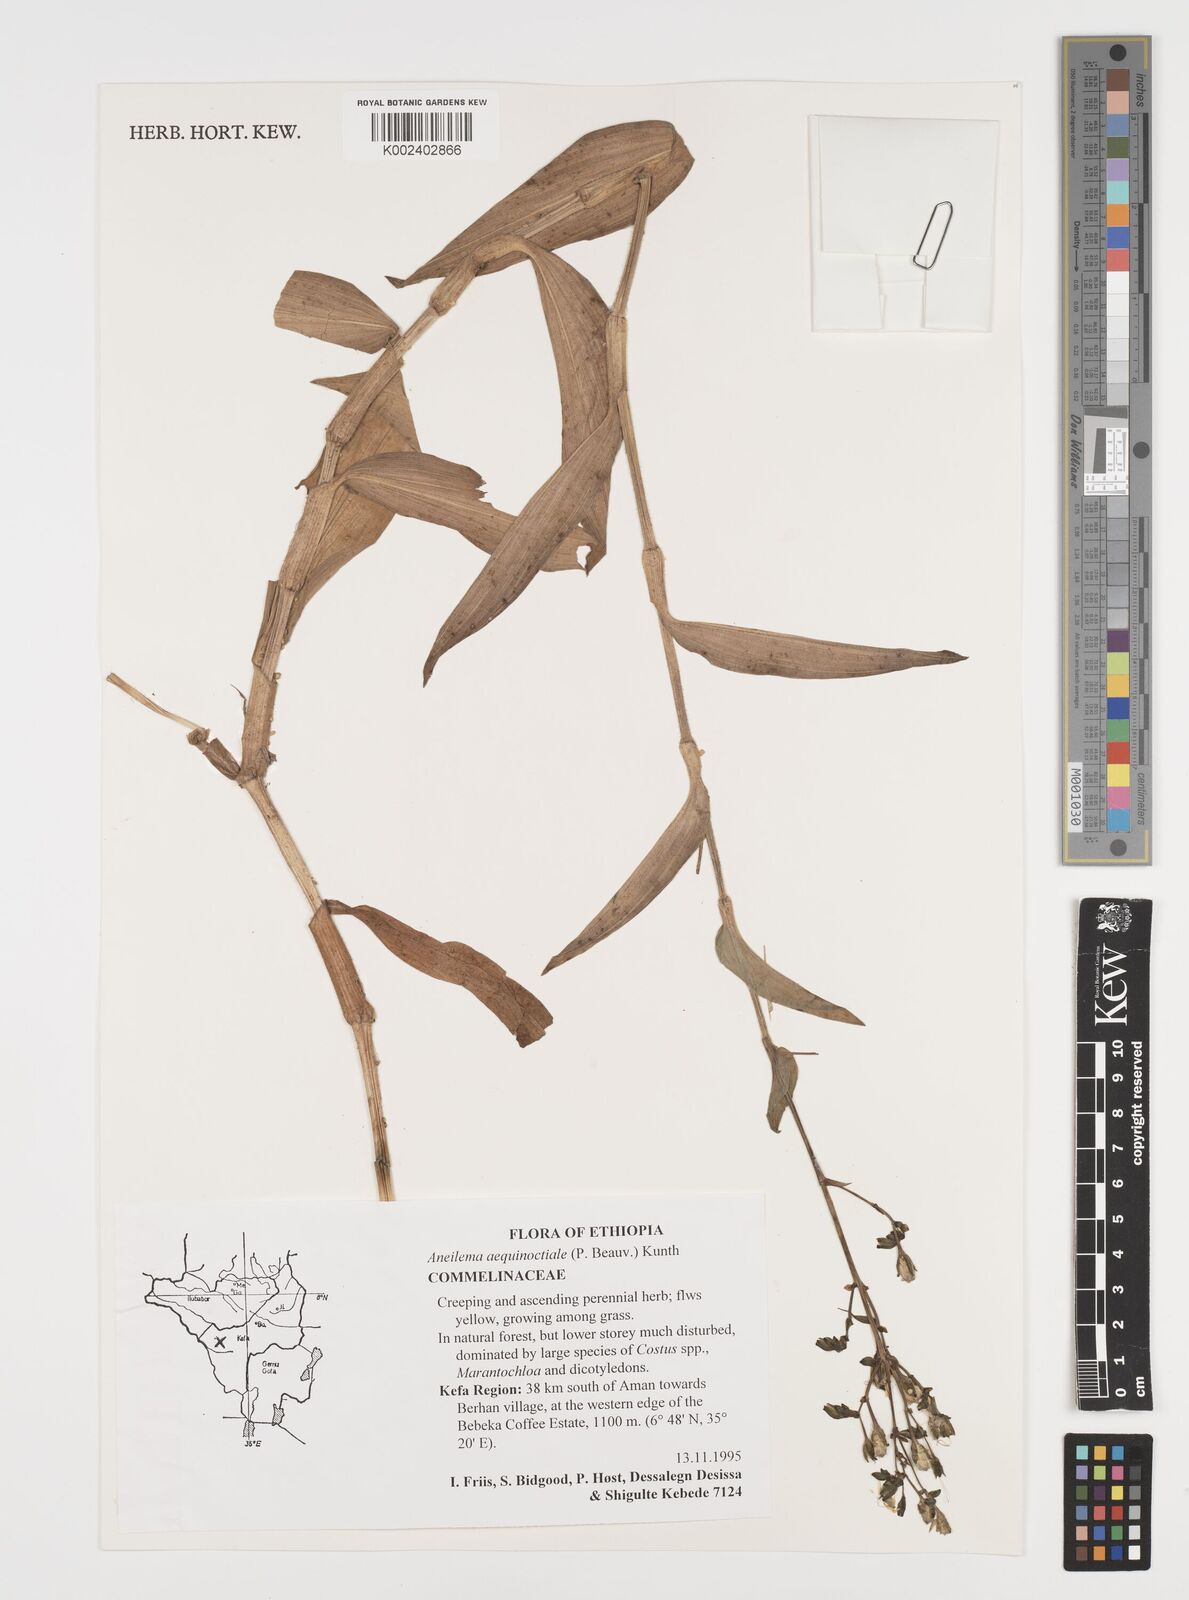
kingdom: Plantae
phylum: Tracheophyta
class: Liliopsida
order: Commelinales
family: Commelinaceae
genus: Aneilema
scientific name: Aneilema aequinoctiale
